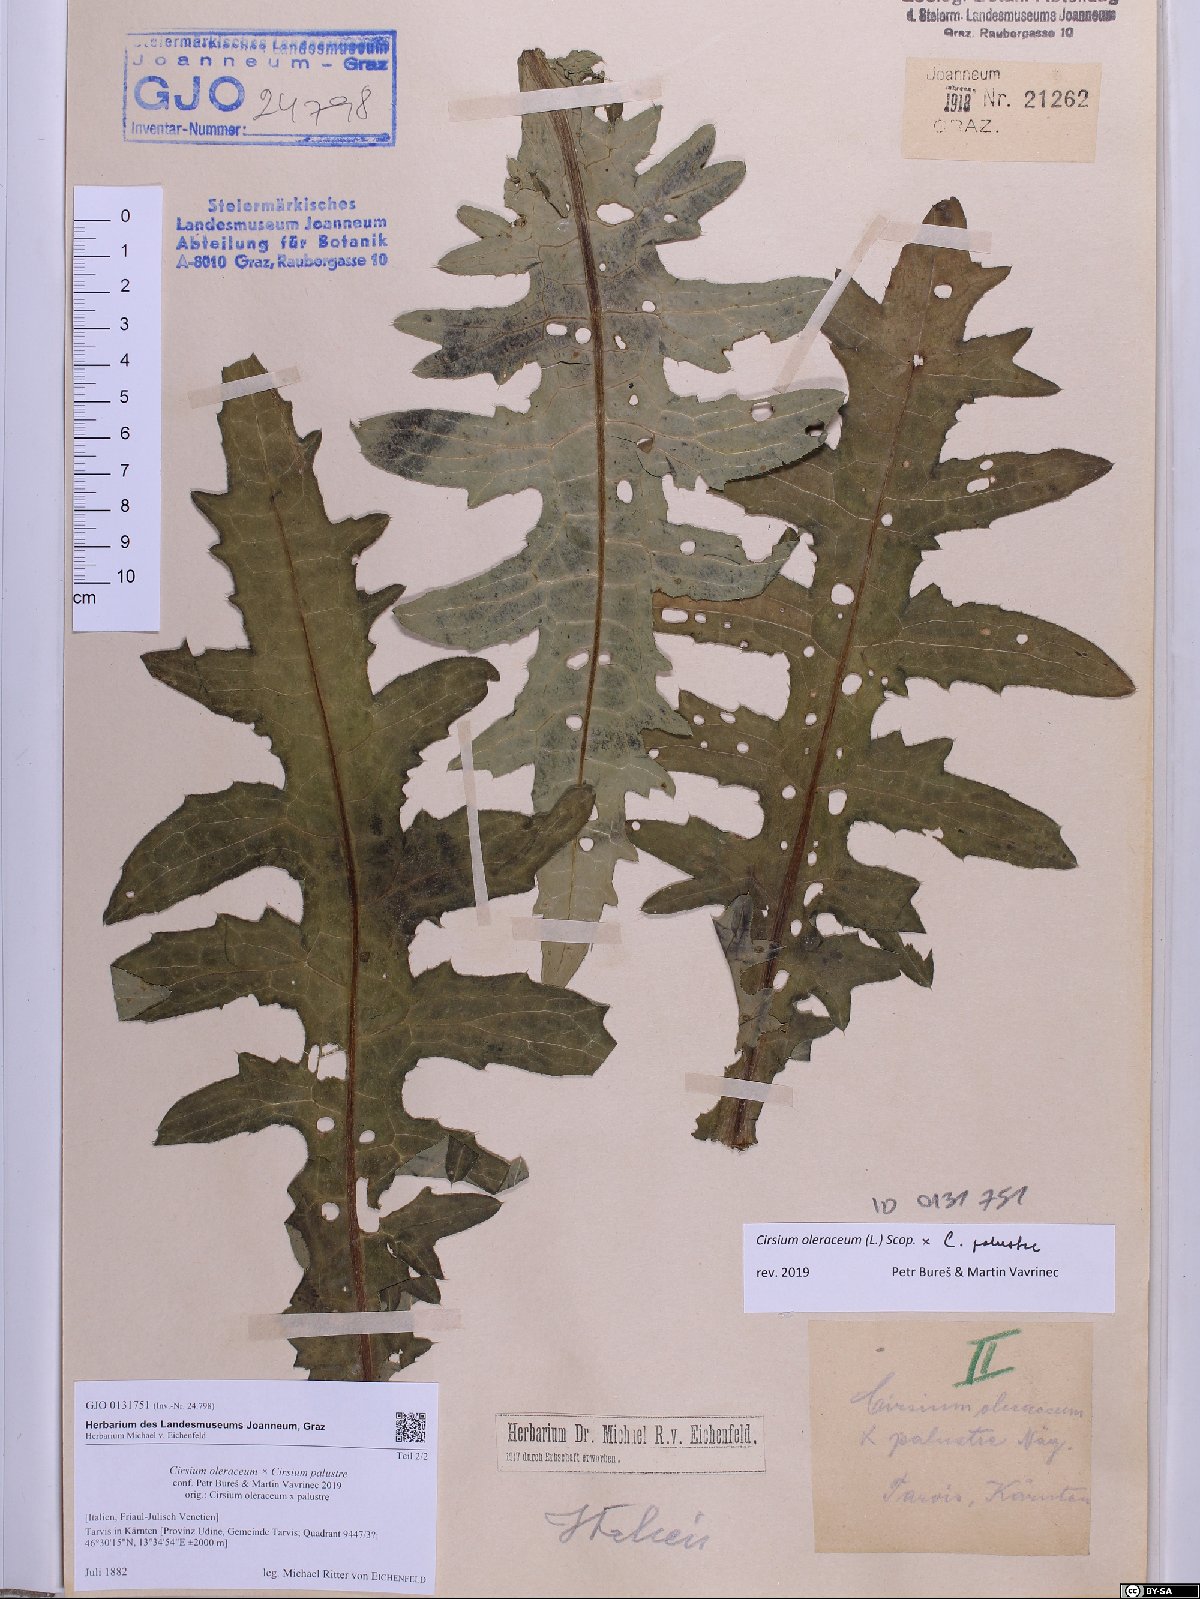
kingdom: Plantae
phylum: Tracheophyta
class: Magnoliopsida
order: Asterales
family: Asteraceae
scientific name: Asteraceae
